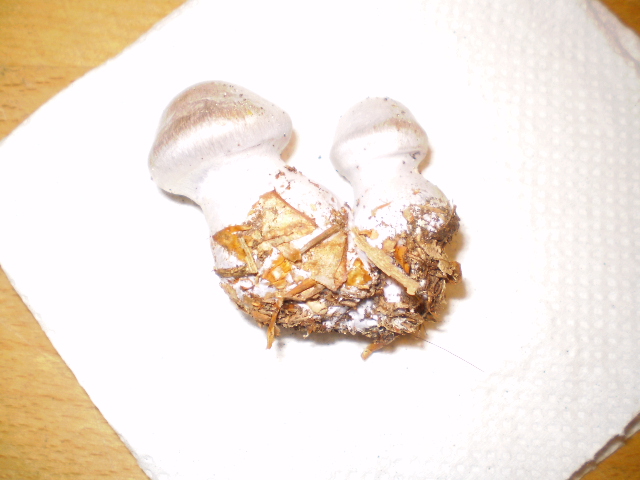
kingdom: Fungi
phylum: Basidiomycota
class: Agaricomycetes
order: Agaricales
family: Cortinariaceae
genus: Cortinarius
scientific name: Cortinarius alboviolaceus
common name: lysviolet slørhat
